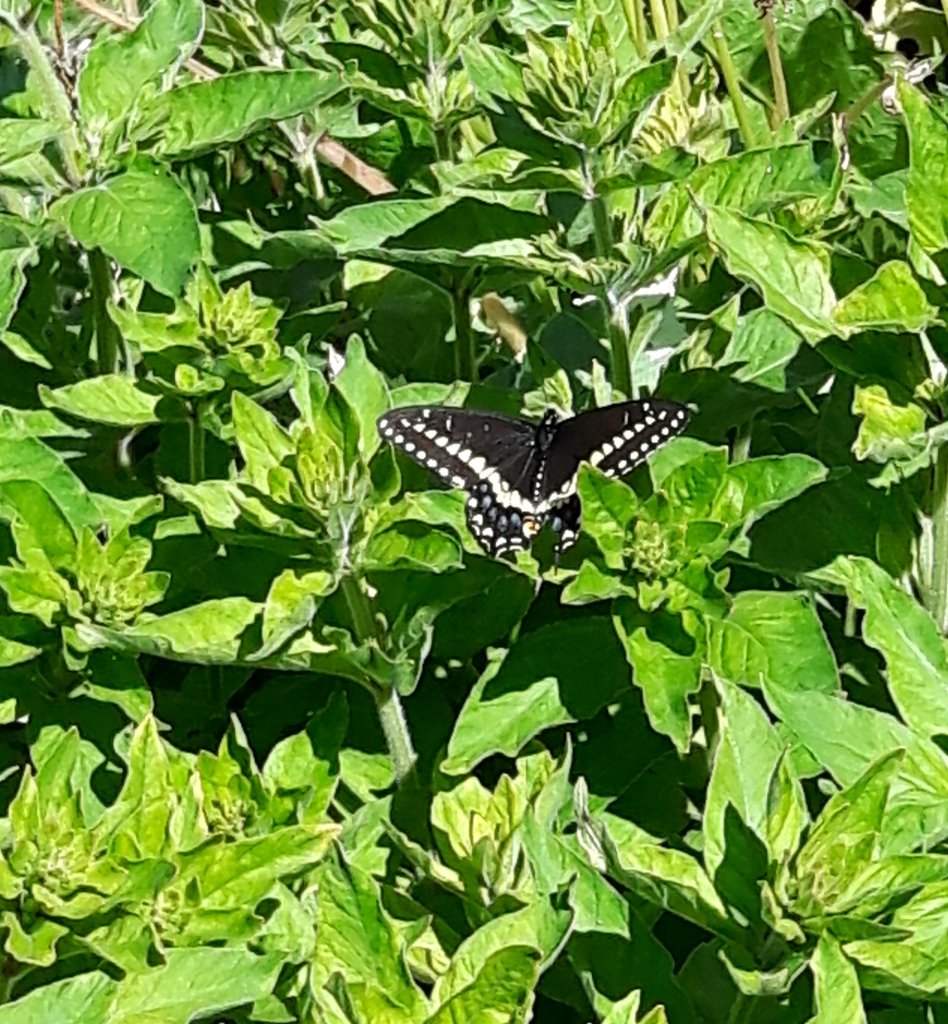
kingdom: Animalia
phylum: Arthropoda
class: Insecta
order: Lepidoptera
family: Papilionidae
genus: Papilio
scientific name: Papilio polyxenes
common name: Black Swallowtail
